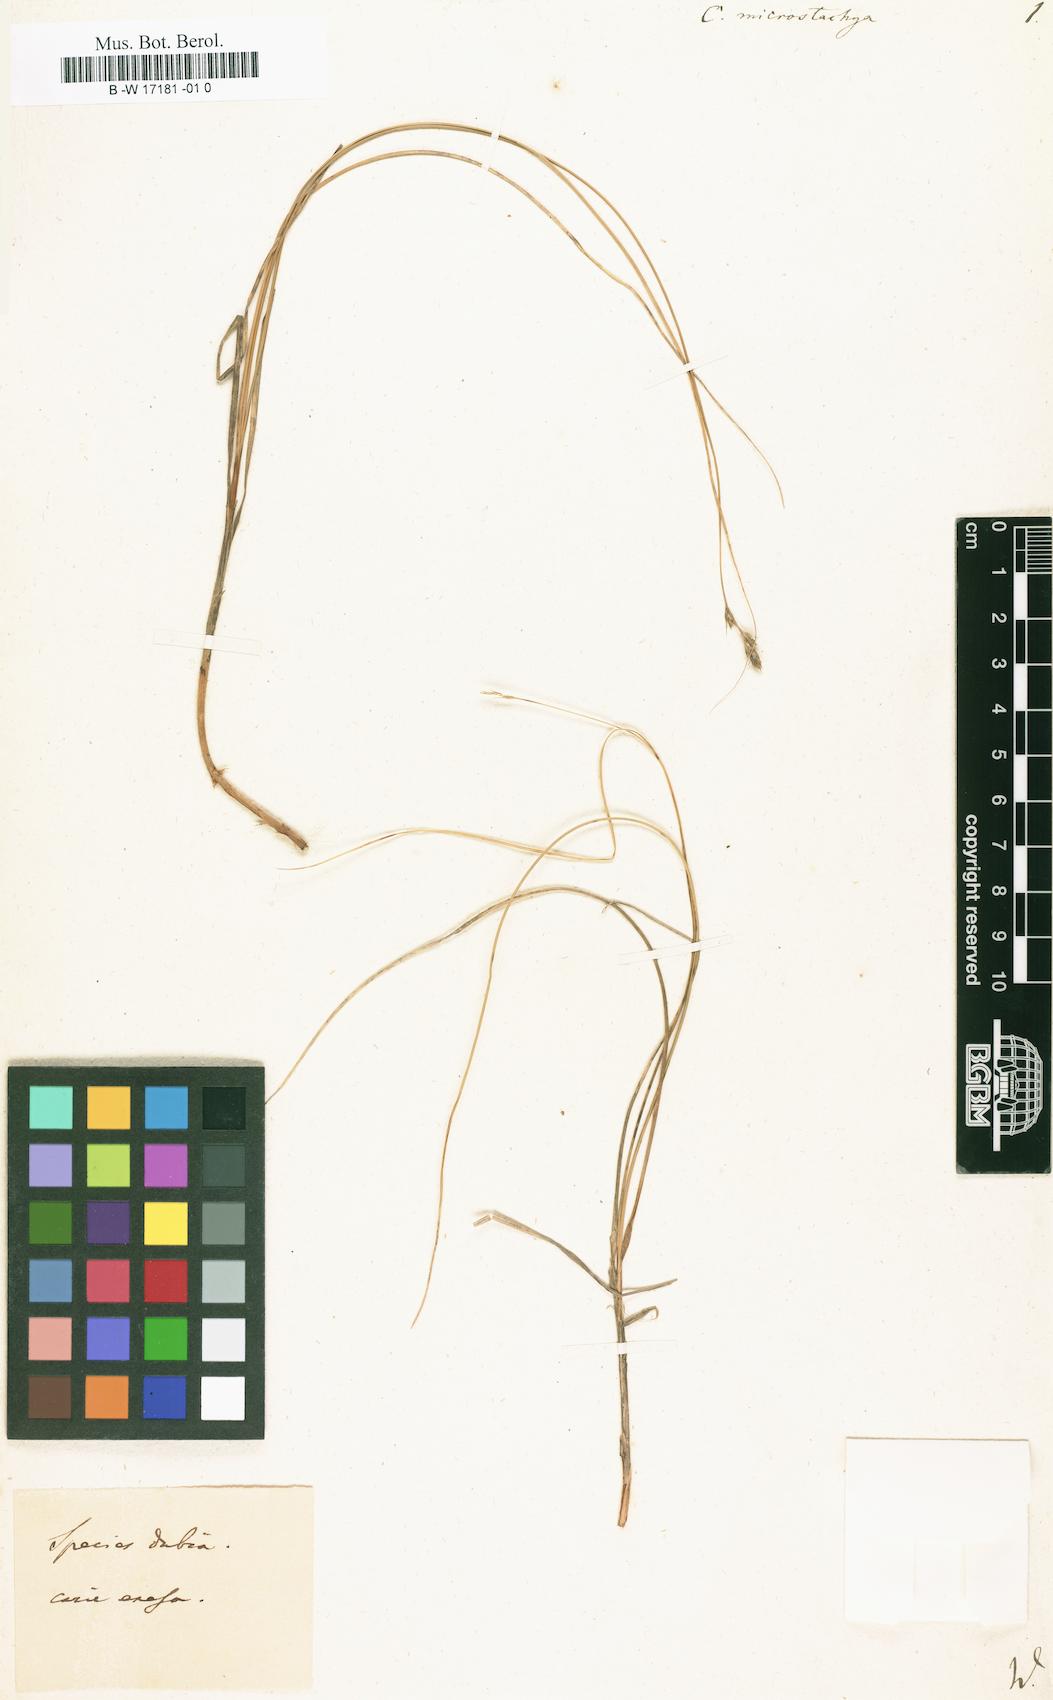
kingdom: Plantae
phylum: Tracheophyta
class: Liliopsida
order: Poales
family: Cyperaceae
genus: Carex
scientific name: Carex microstachya
